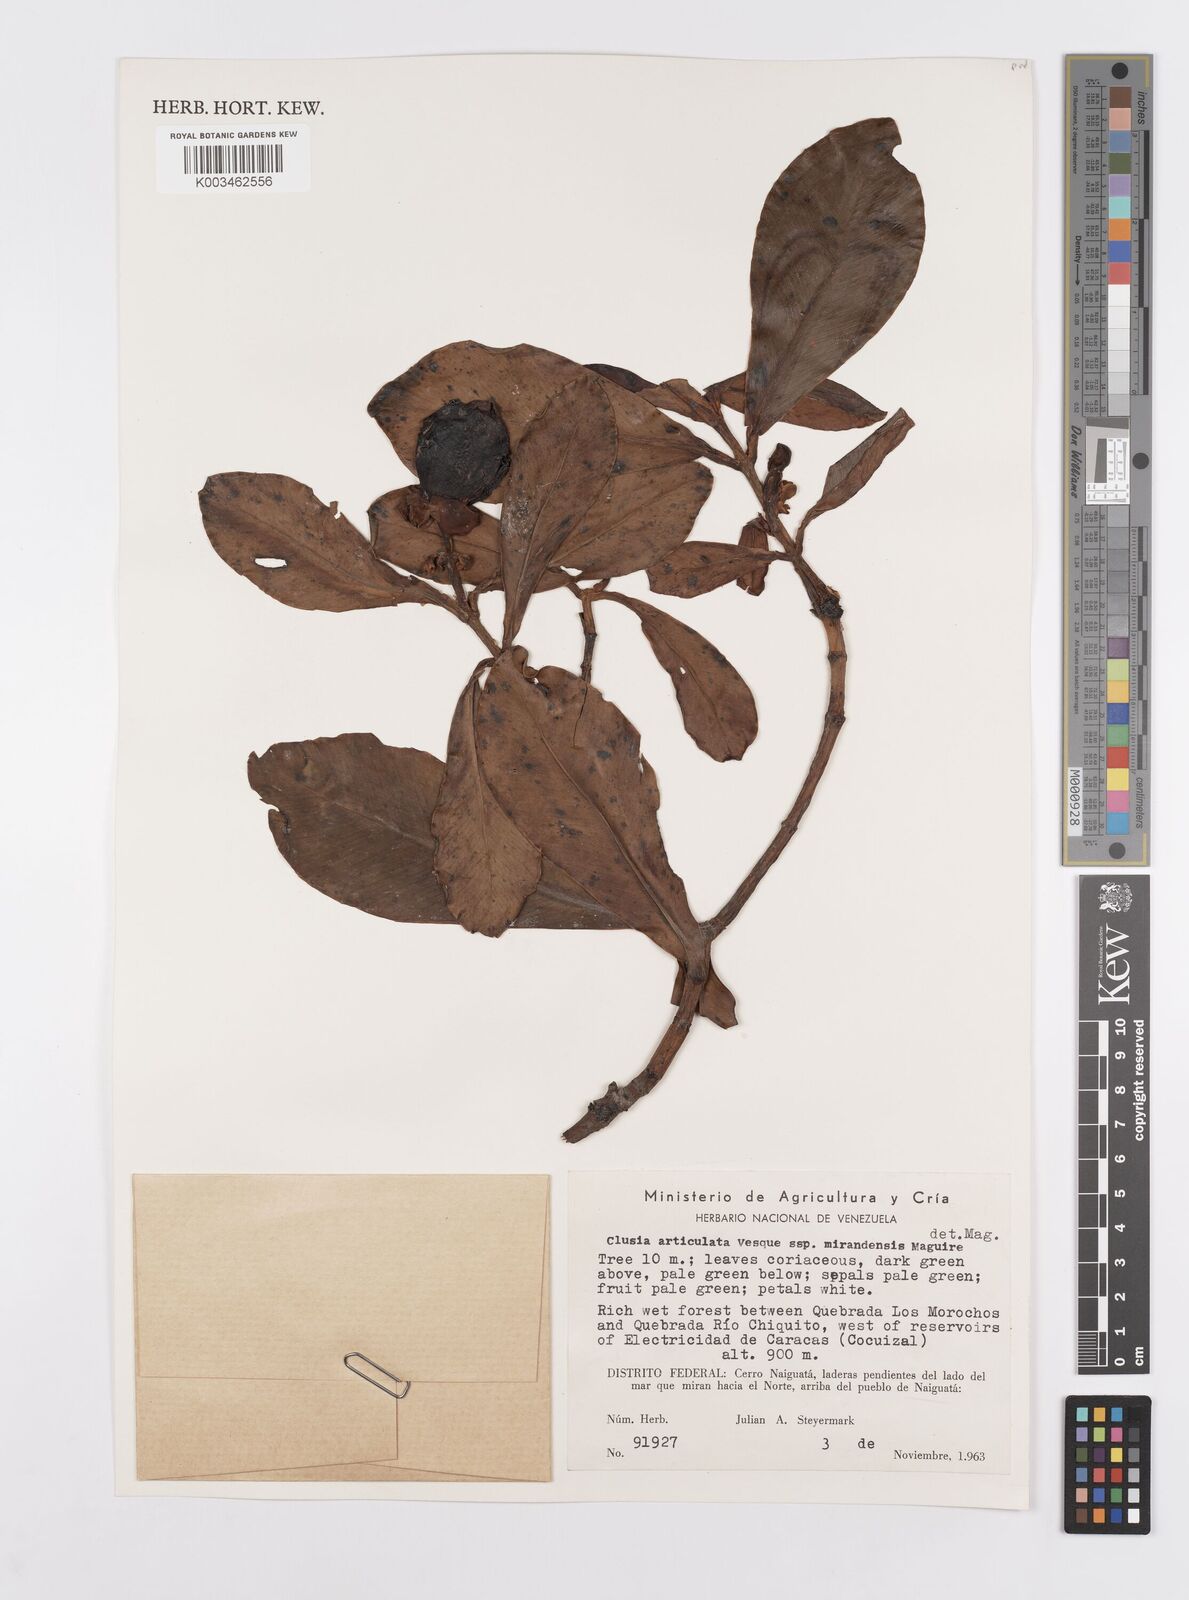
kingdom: Plantae
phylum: Tracheophyta
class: Magnoliopsida
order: Malpighiales
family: Clusiaceae
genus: Clusia
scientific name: Clusia articulata
